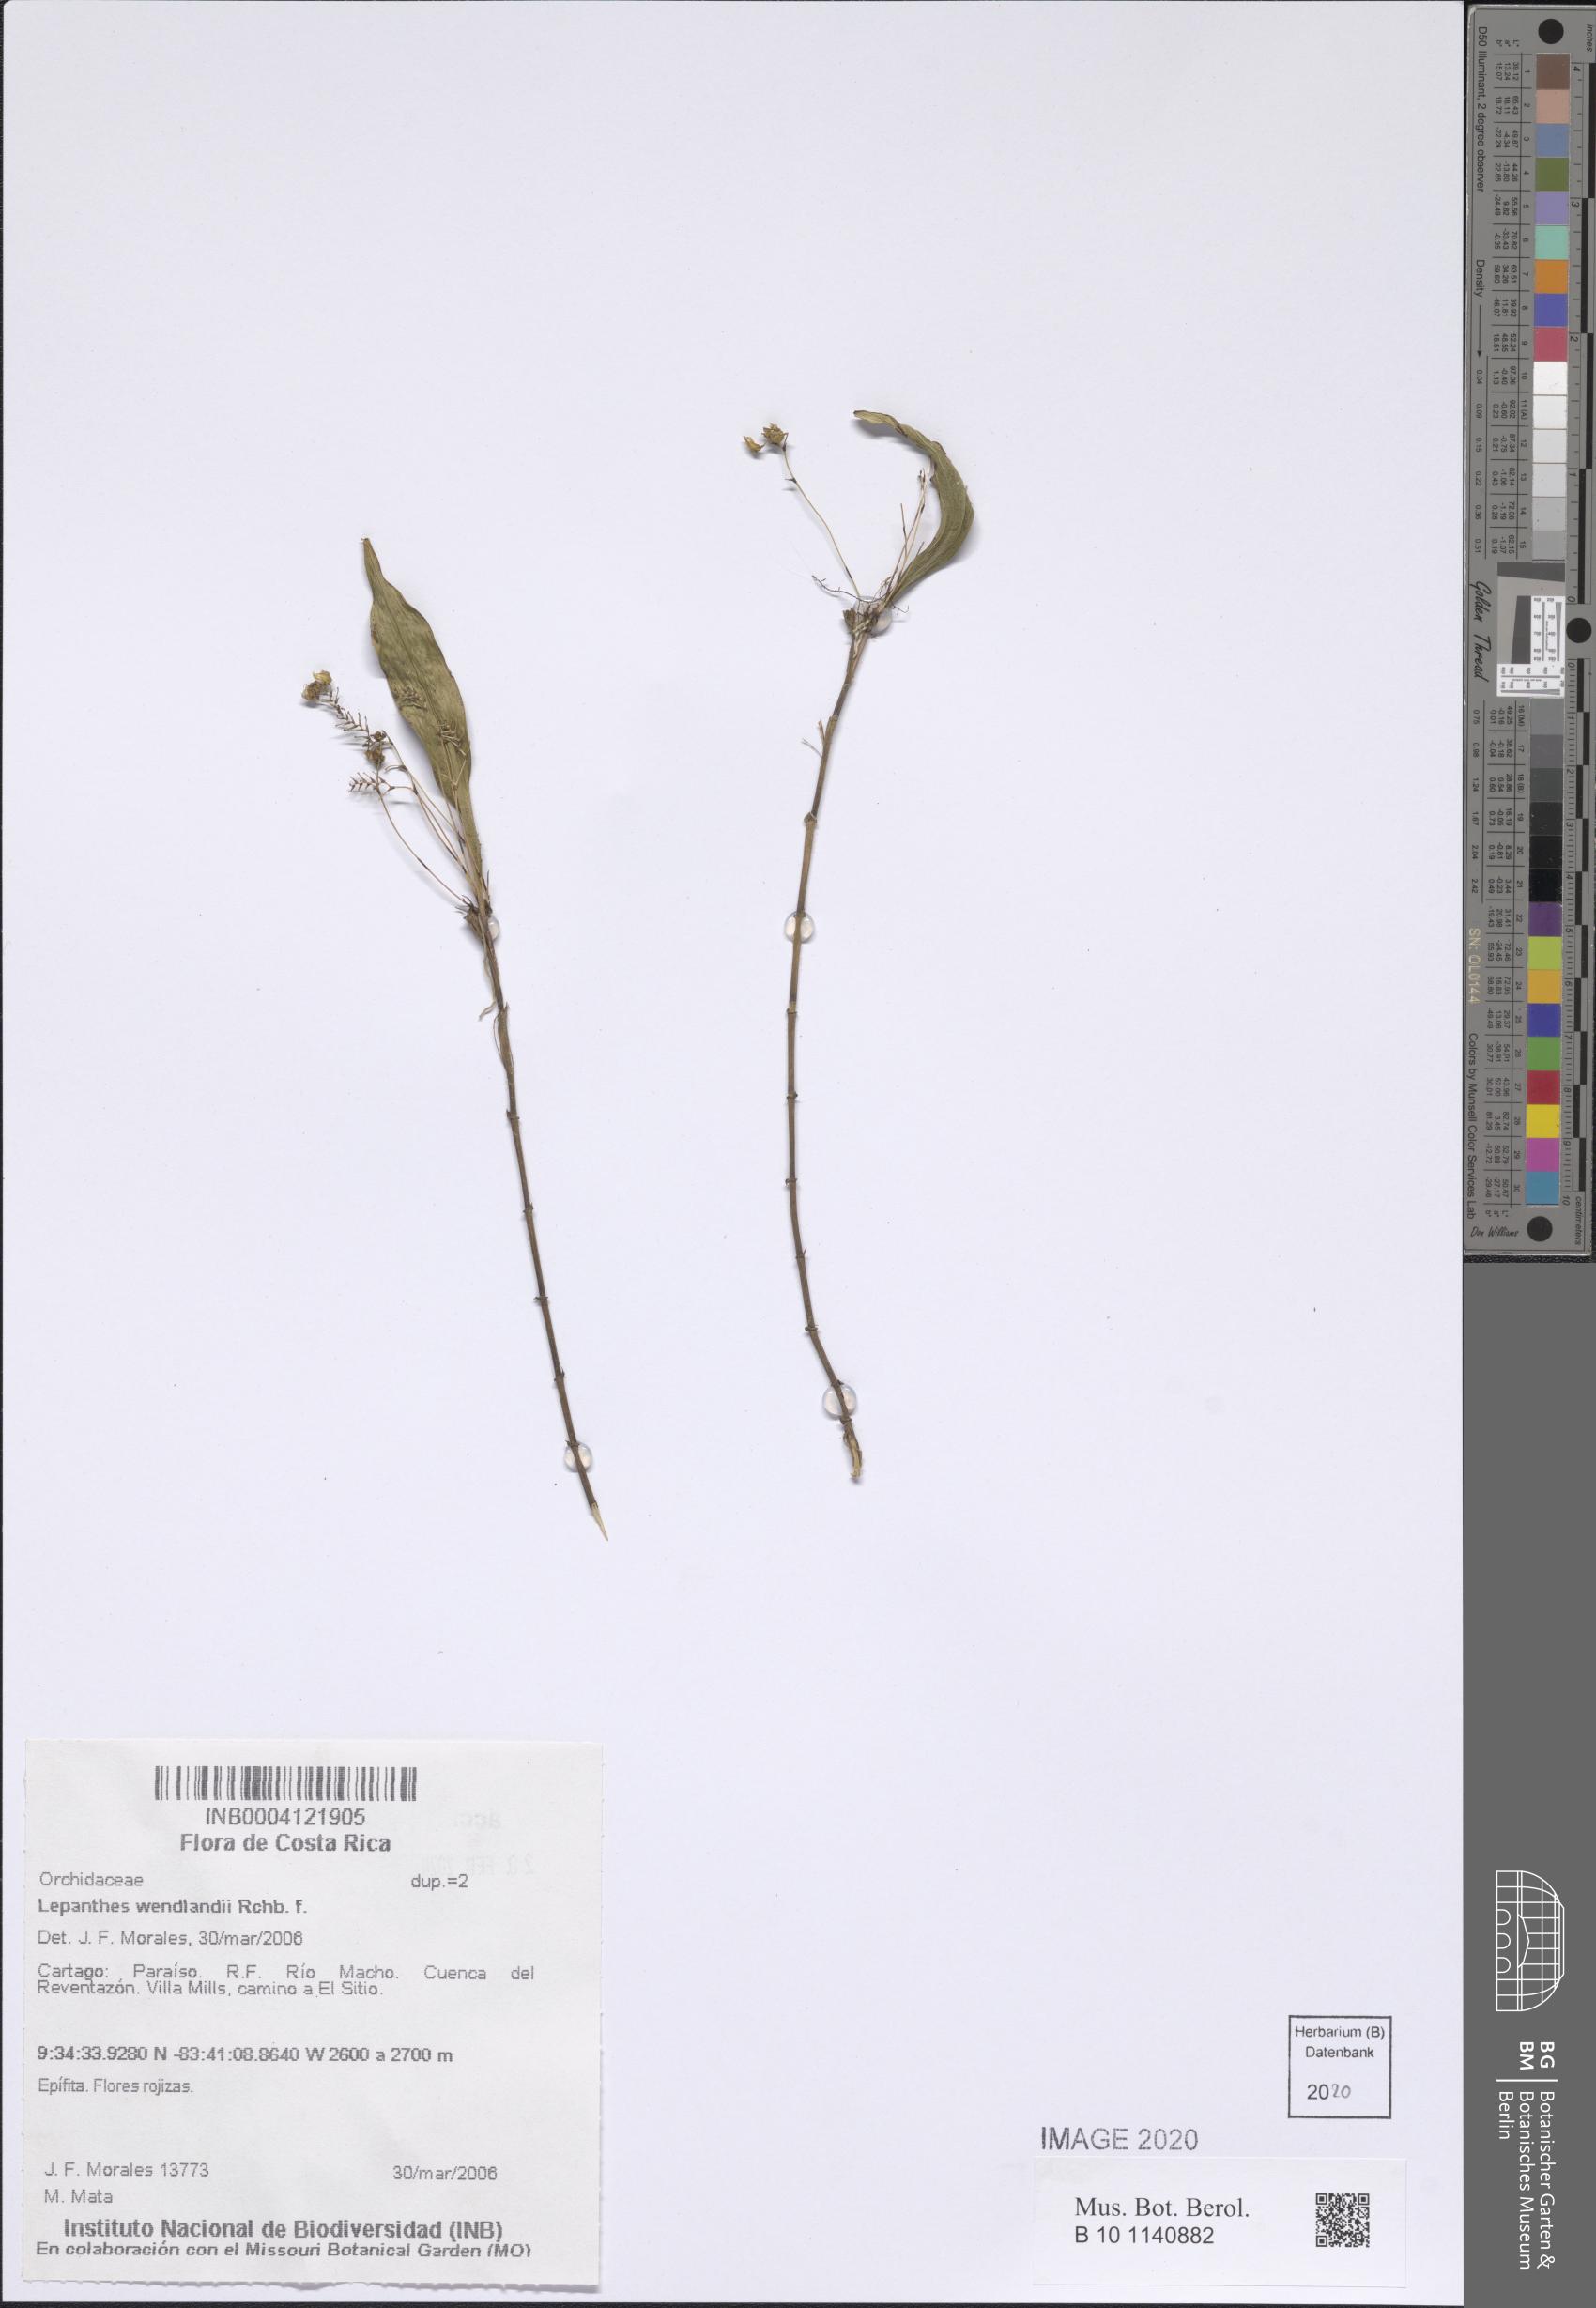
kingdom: Plantae
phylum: Tracheophyta
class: Liliopsida
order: Asparagales
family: Orchidaceae
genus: Lepanthes
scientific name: Lepanthes wendlandii
